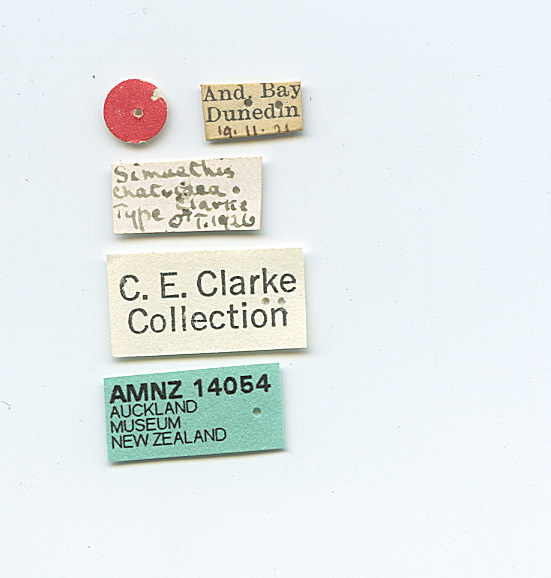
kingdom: Animalia
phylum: Arthropoda
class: Insecta
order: Lepidoptera
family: Choreutidae
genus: Asterivora
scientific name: Asterivora chatuidea
